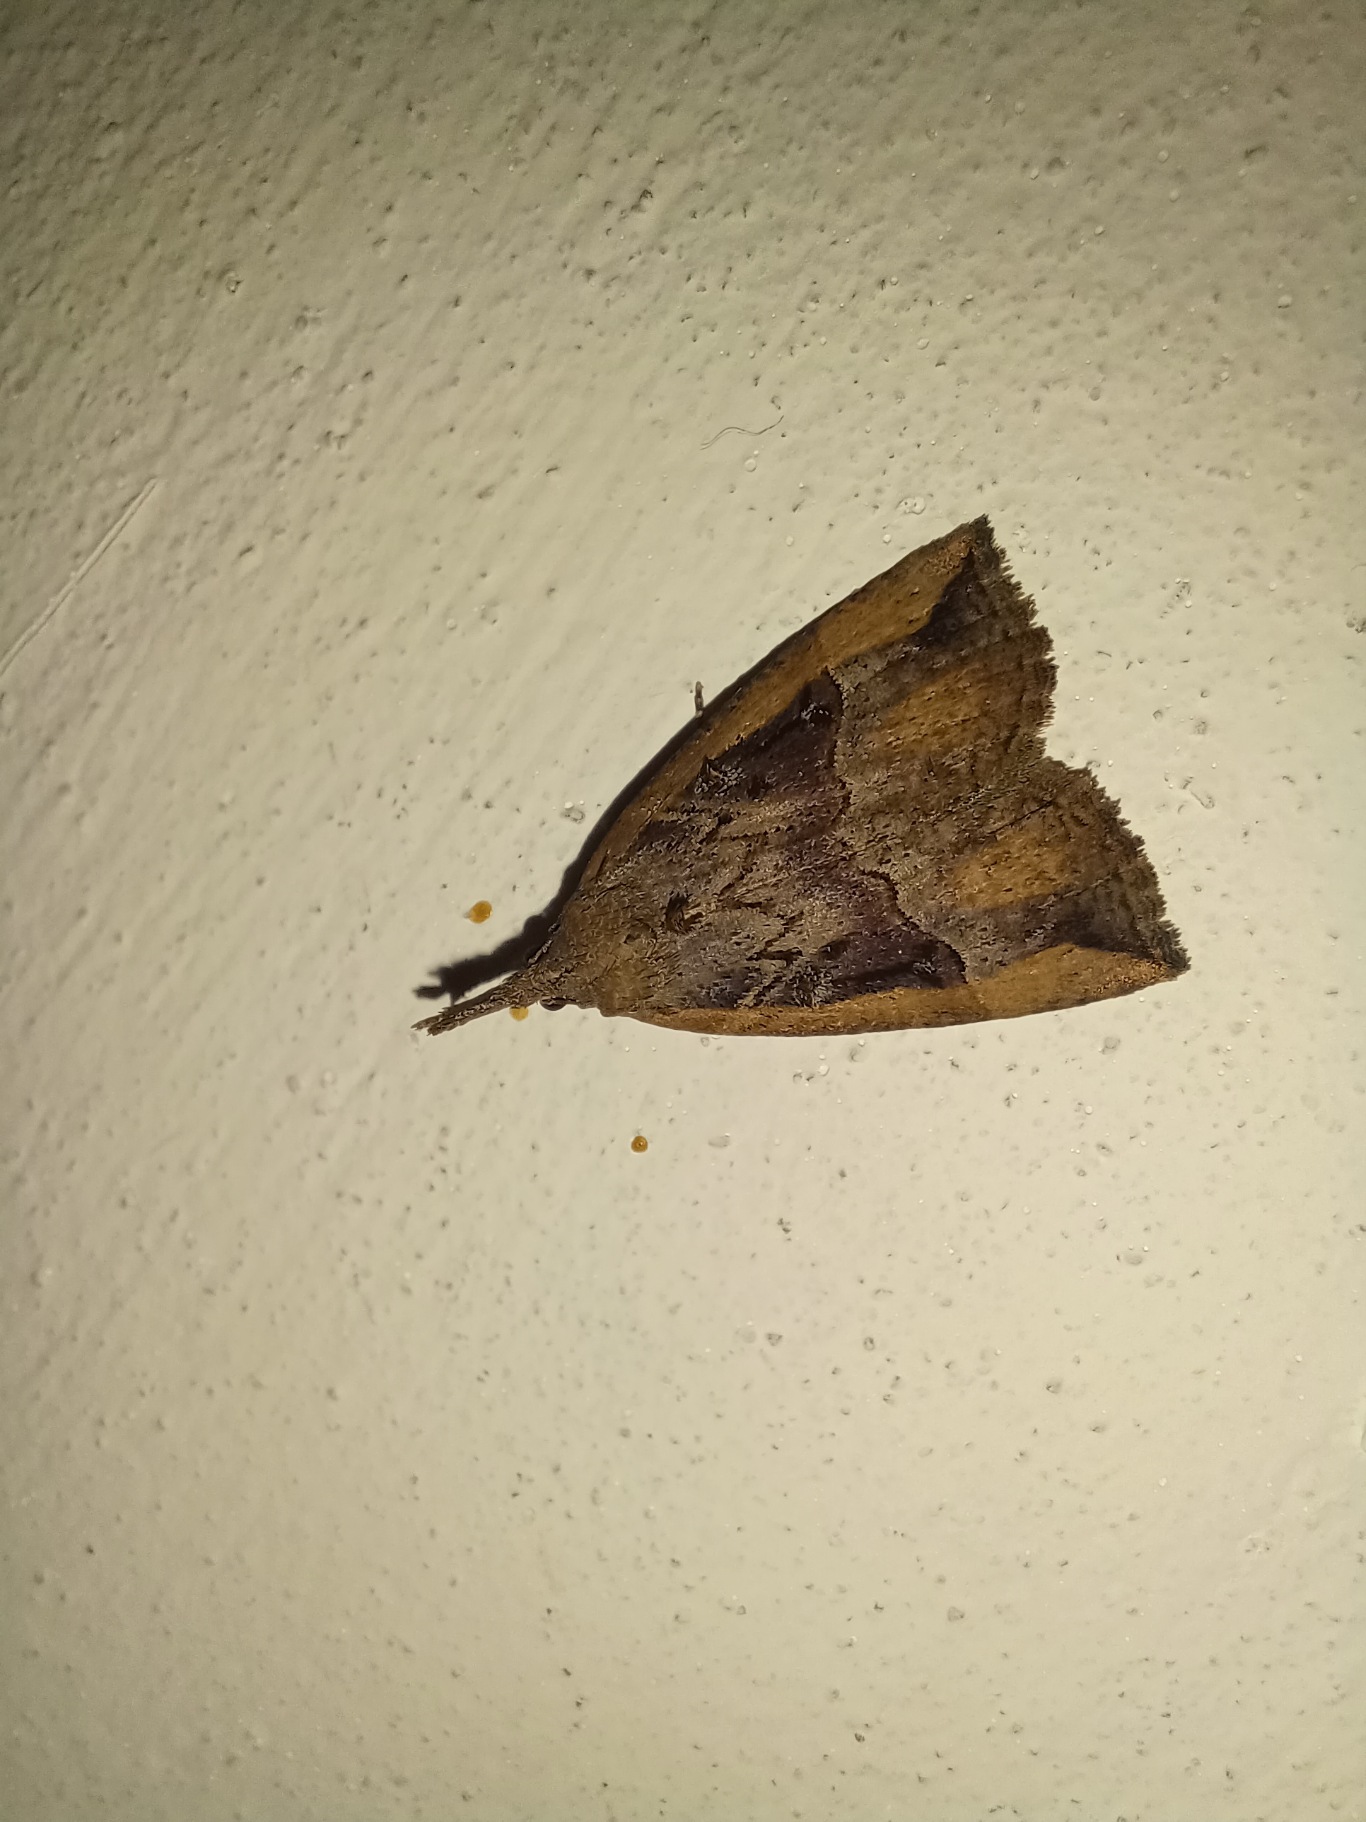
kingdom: Animalia
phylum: Arthropoda
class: Insecta
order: Lepidoptera
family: Erebidae
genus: Hypena
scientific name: Hypena rostralis
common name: Humleugle
